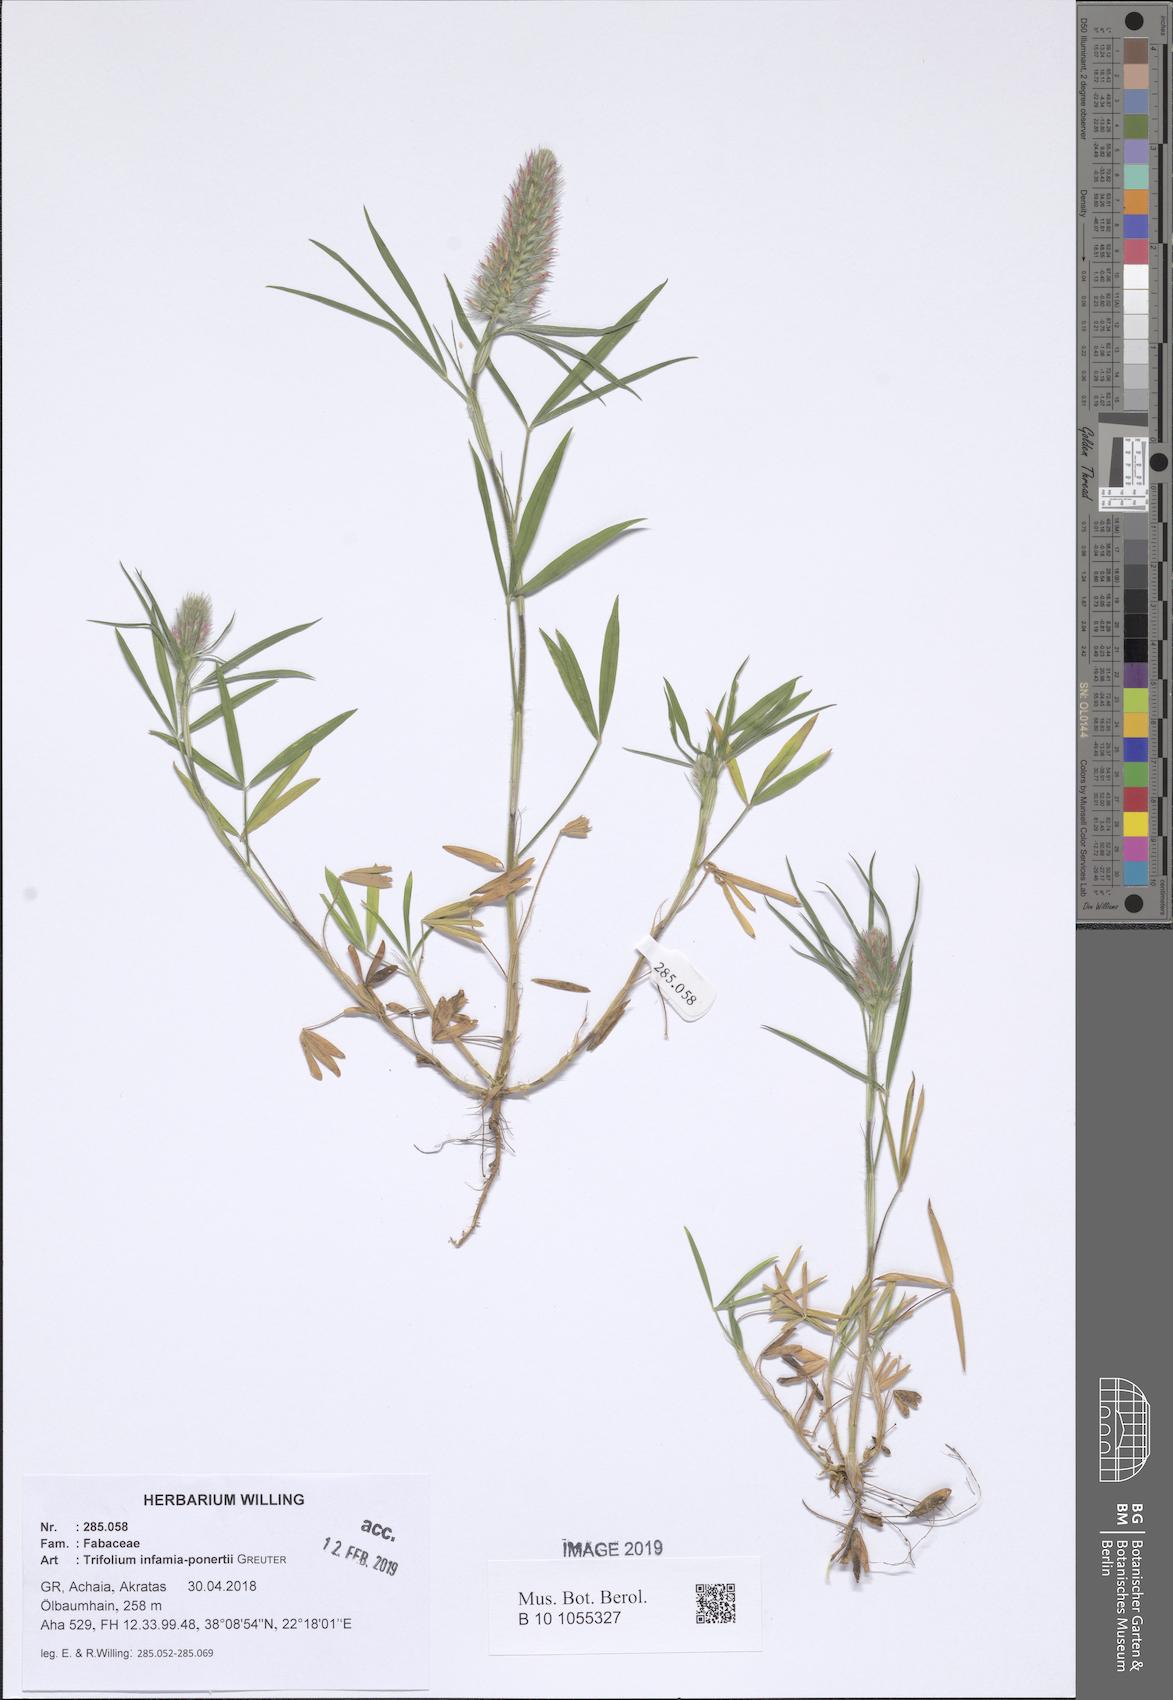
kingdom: Plantae
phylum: Tracheophyta
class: Magnoliopsida
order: Fabales
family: Fabaceae
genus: Trifolium
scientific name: Trifolium infamia-ponertii
